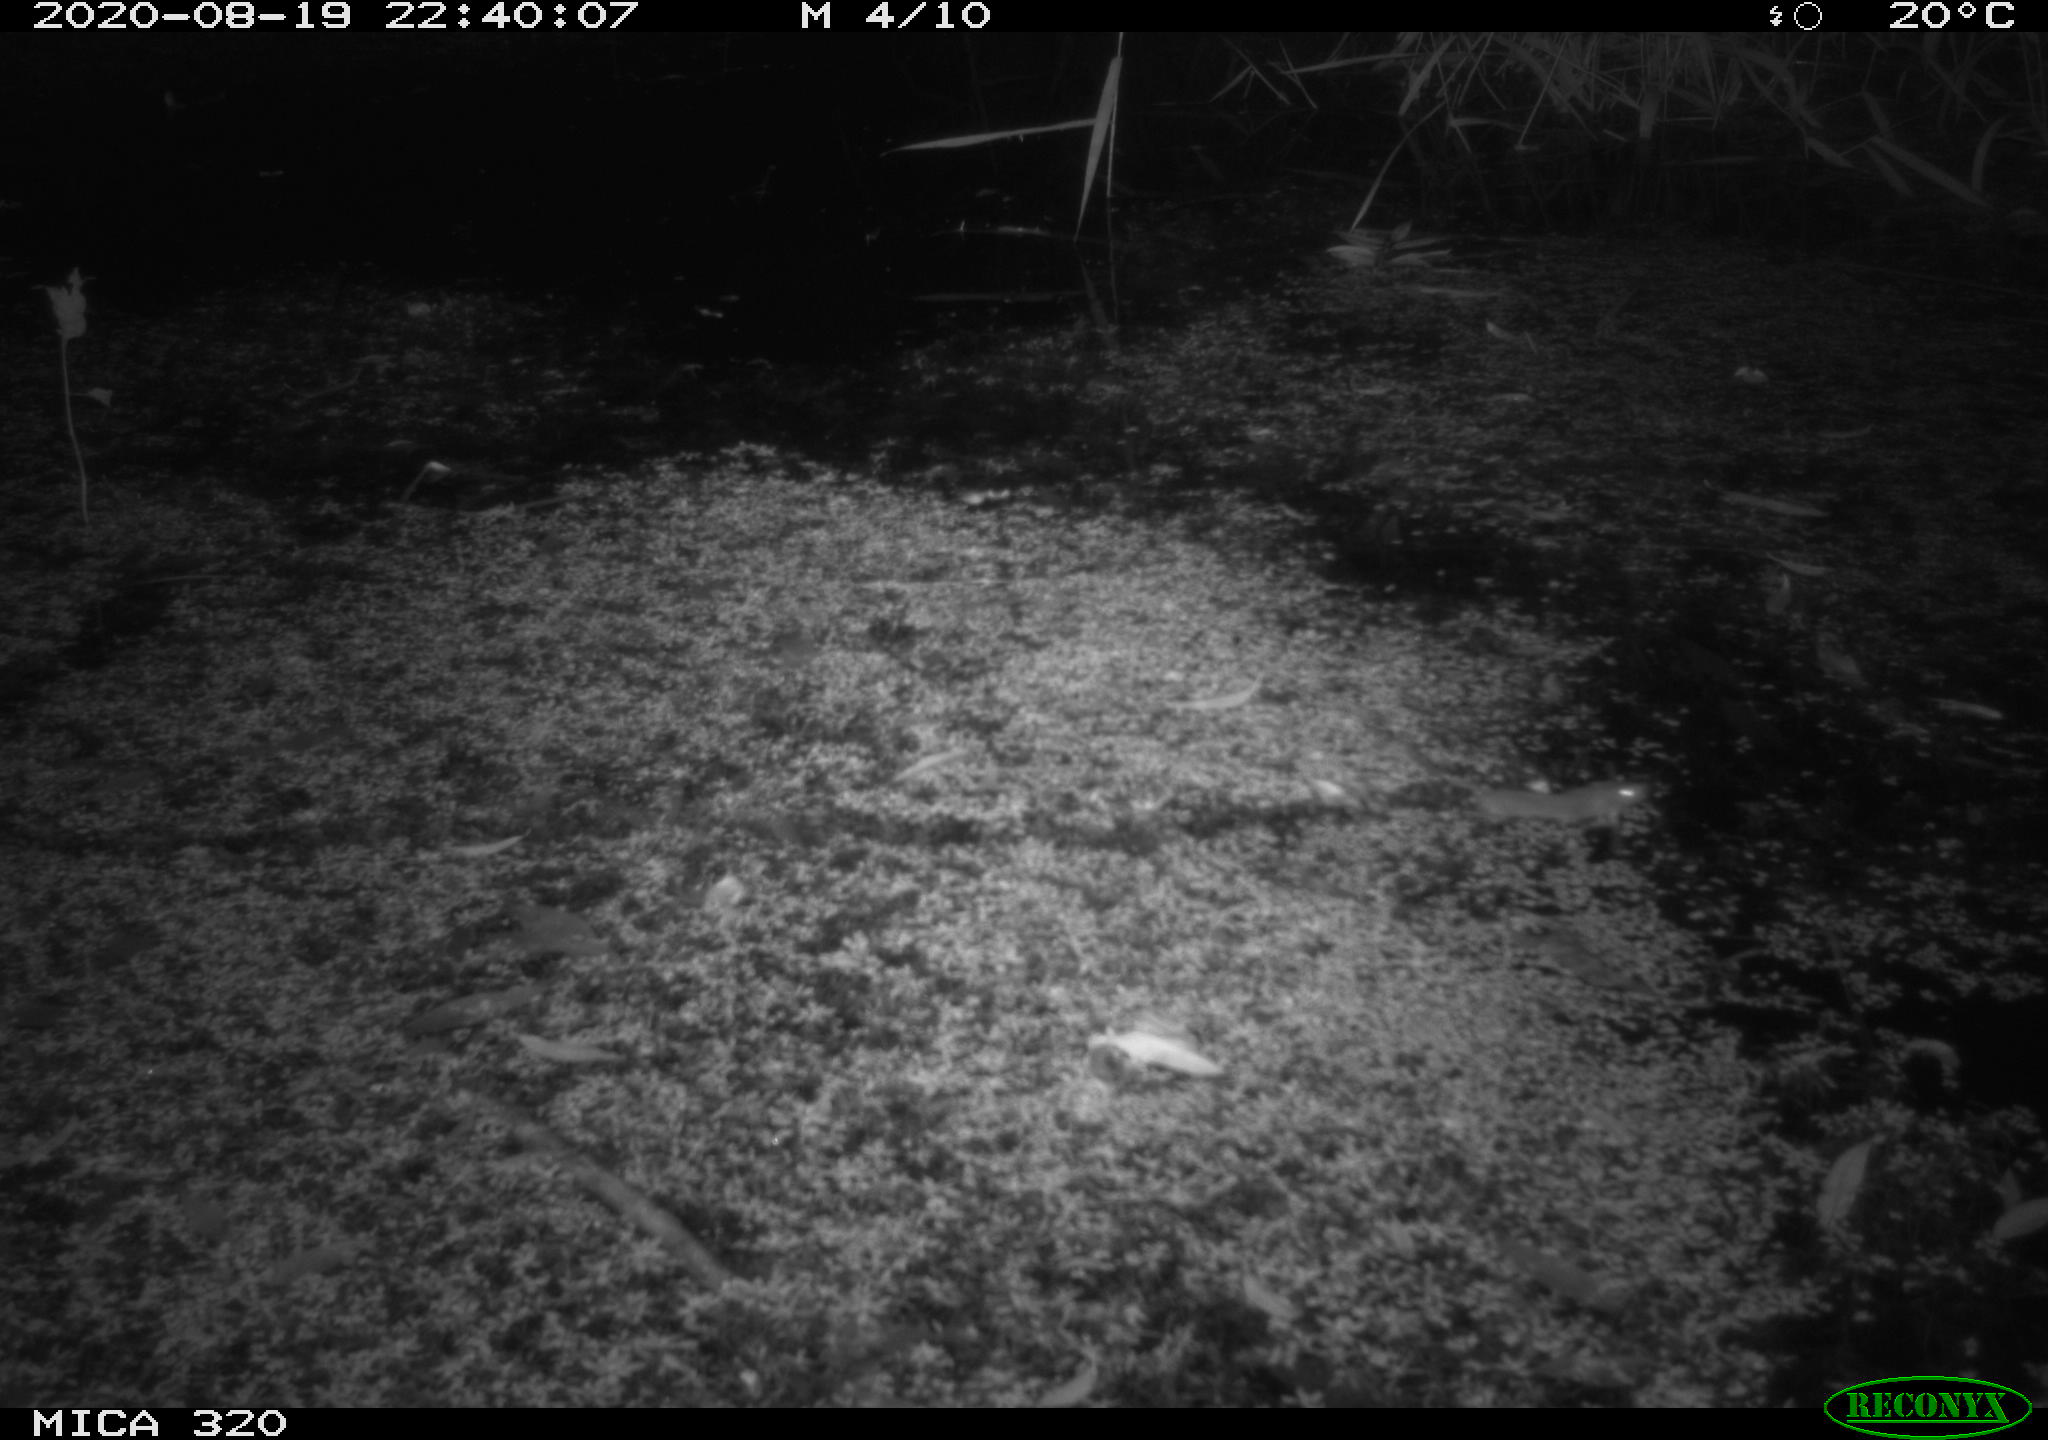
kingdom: Animalia
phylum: Chordata
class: Mammalia
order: Rodentia
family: Muridae
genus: Rattus
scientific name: Rattus norvegicus
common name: Brown rat
